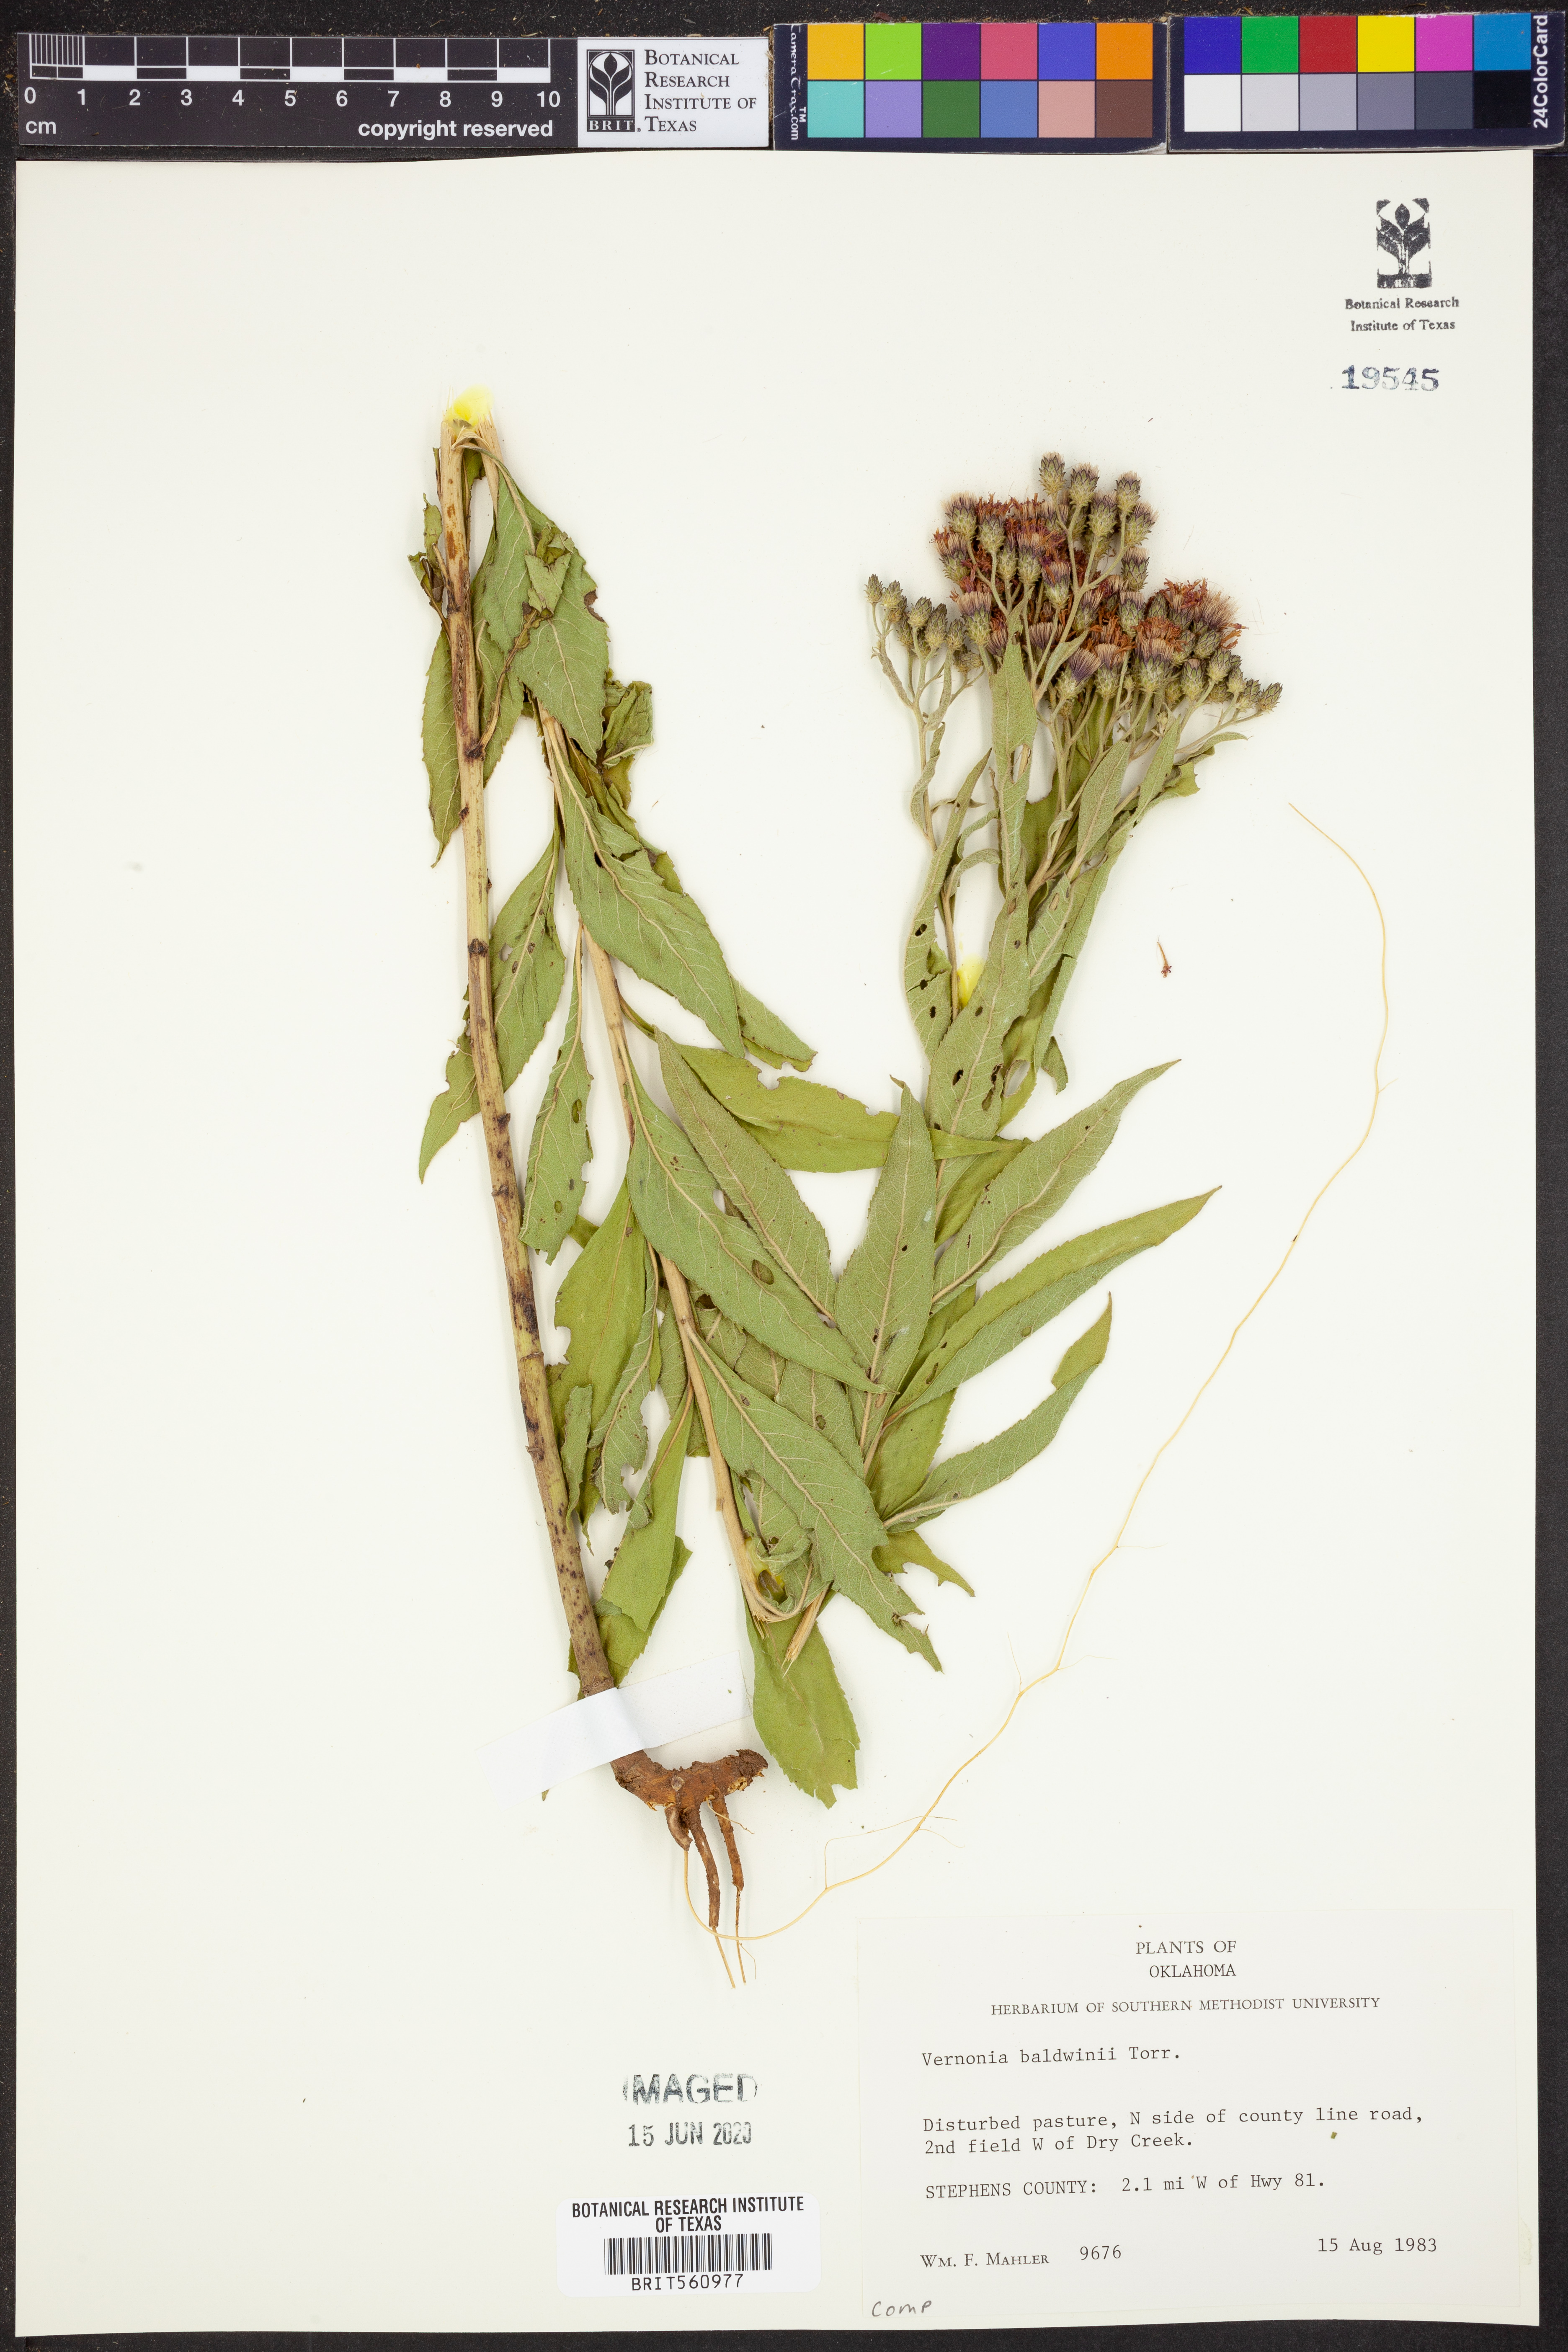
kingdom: Plantae
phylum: Tracheophyta
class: Magnoliopsida
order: Asterales
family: Asteraceae
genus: Vernonia
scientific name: Vernonia baldwinii
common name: Western ironweed
